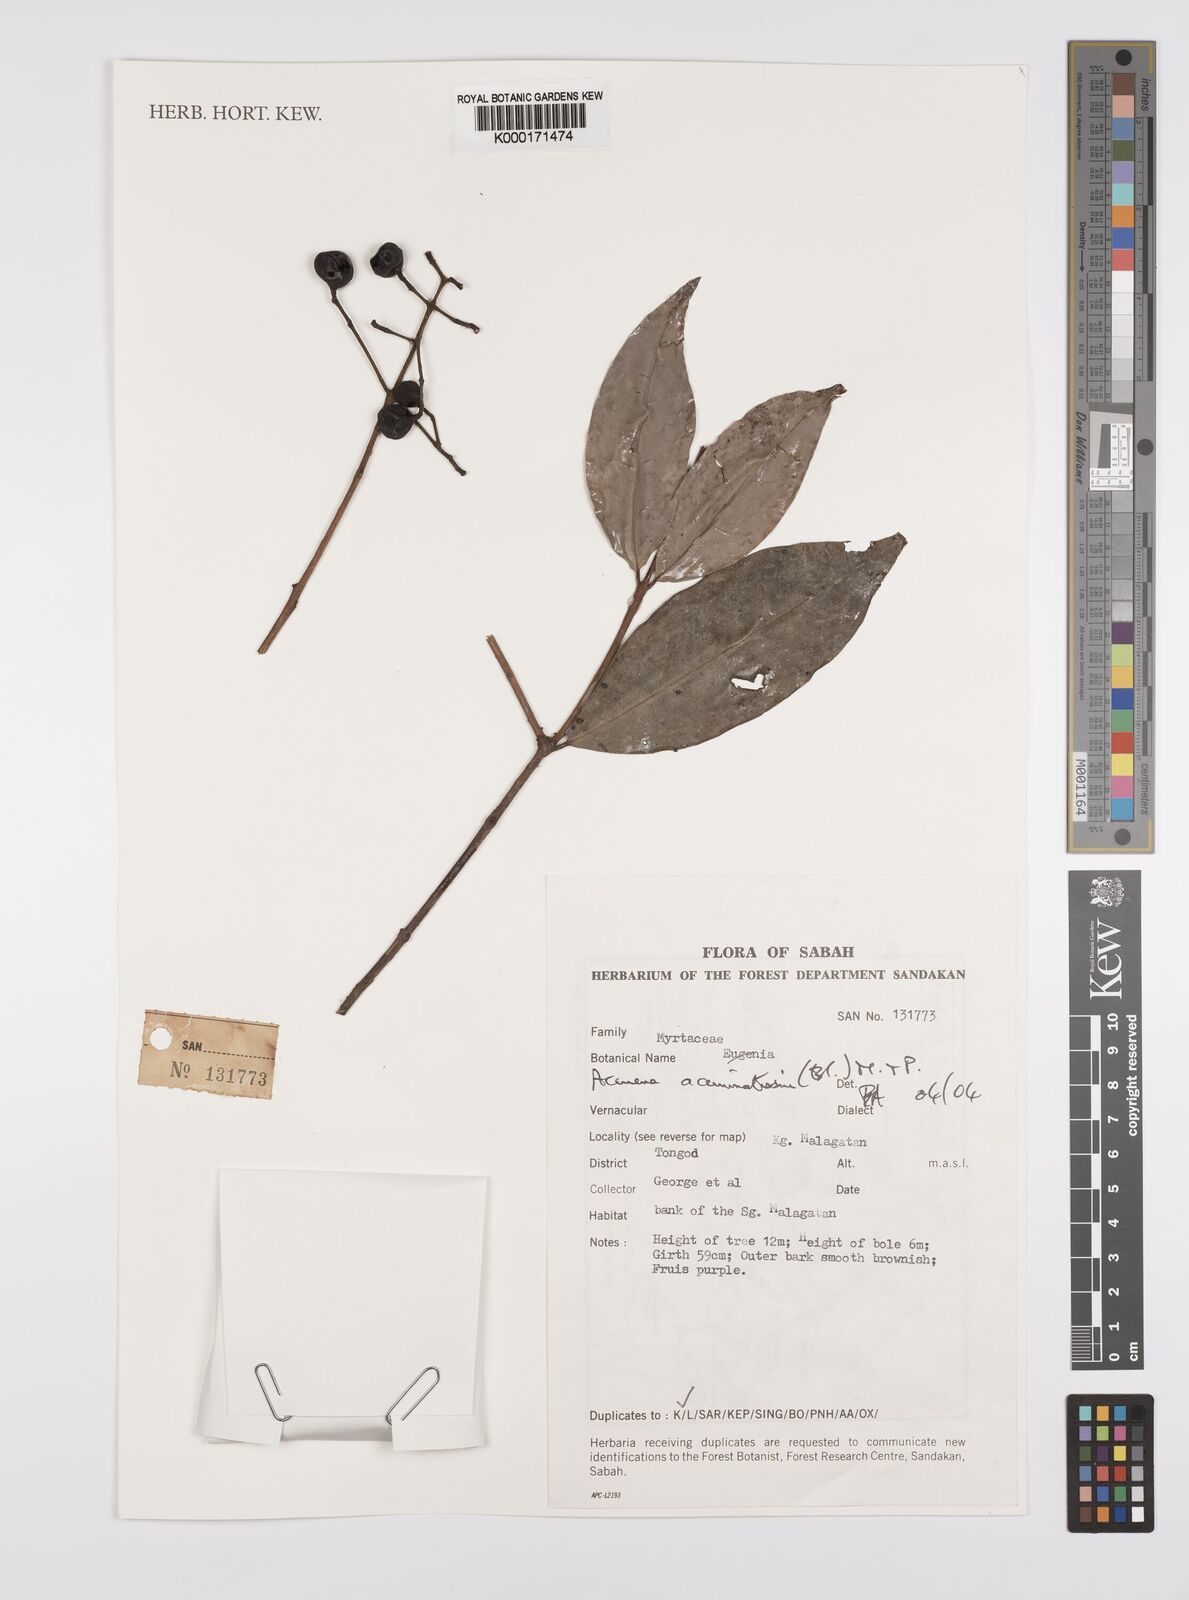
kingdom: Plantae
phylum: Tracheophyta
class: Magnoliopsida
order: Myrtales
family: Myrtaceae
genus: Syzygium
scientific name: Syzygium acuminatissimum
